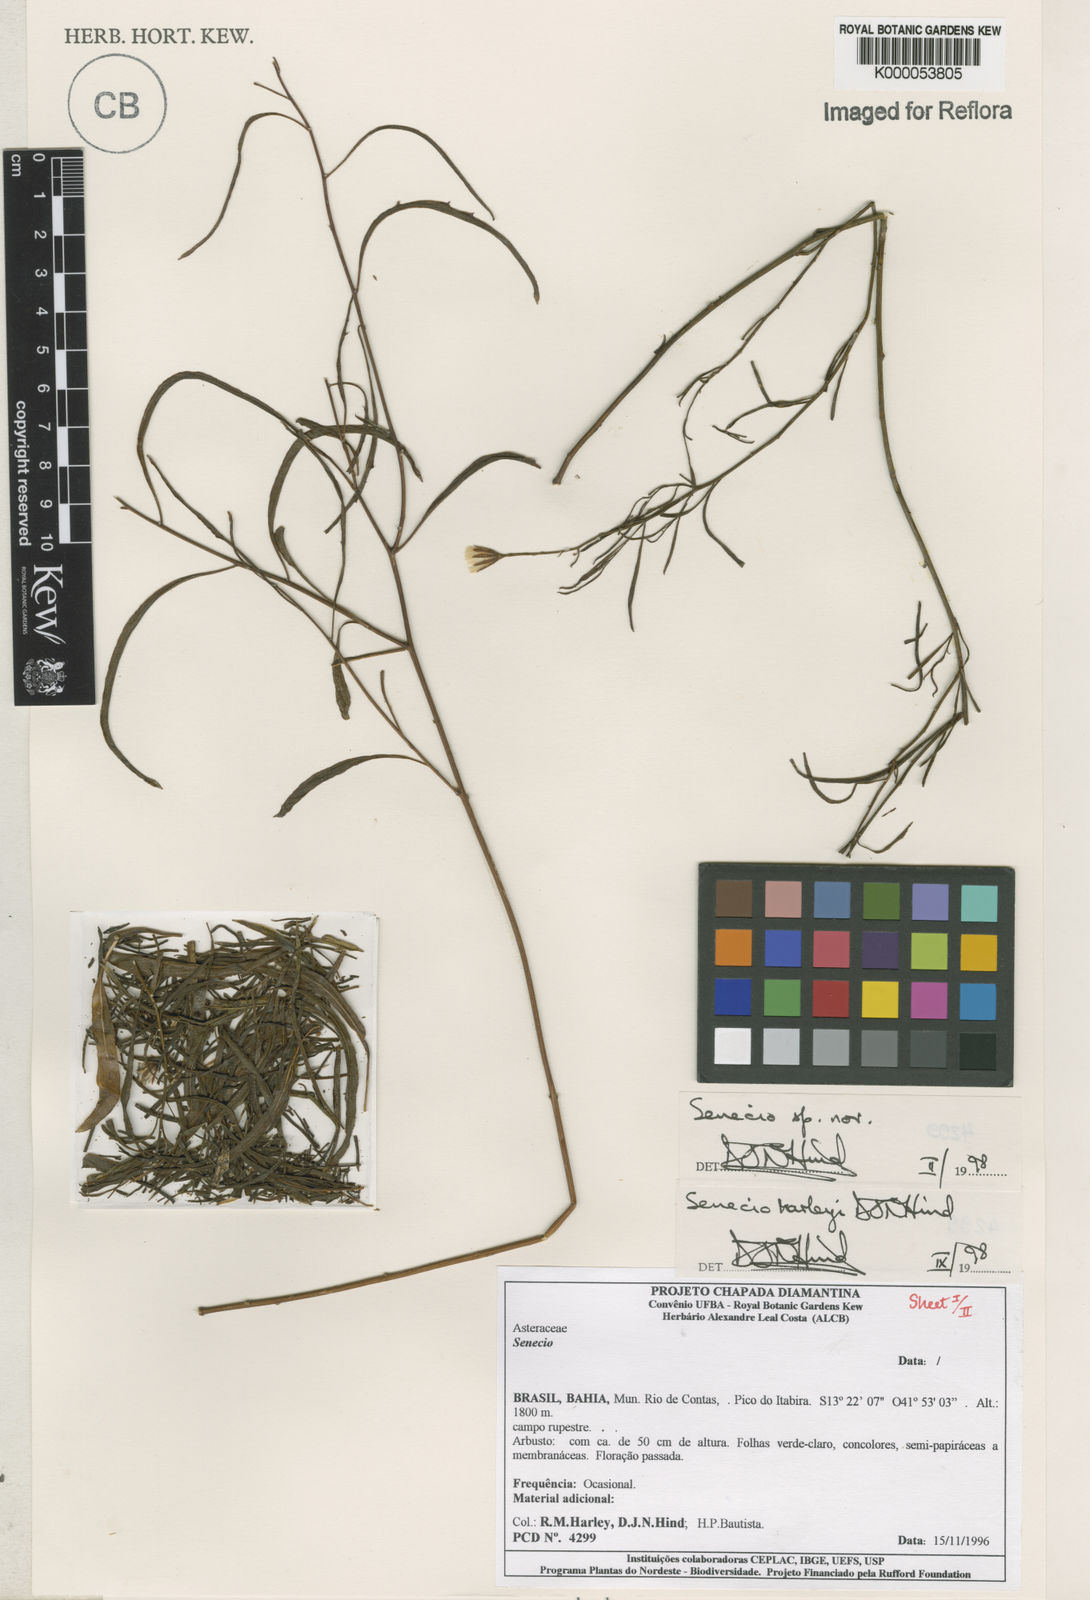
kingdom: Plantae
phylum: Tracheophyta
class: Magnoliopsida
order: Asterales
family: Asteraceae
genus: Senecio
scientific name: Senecio harleyi
